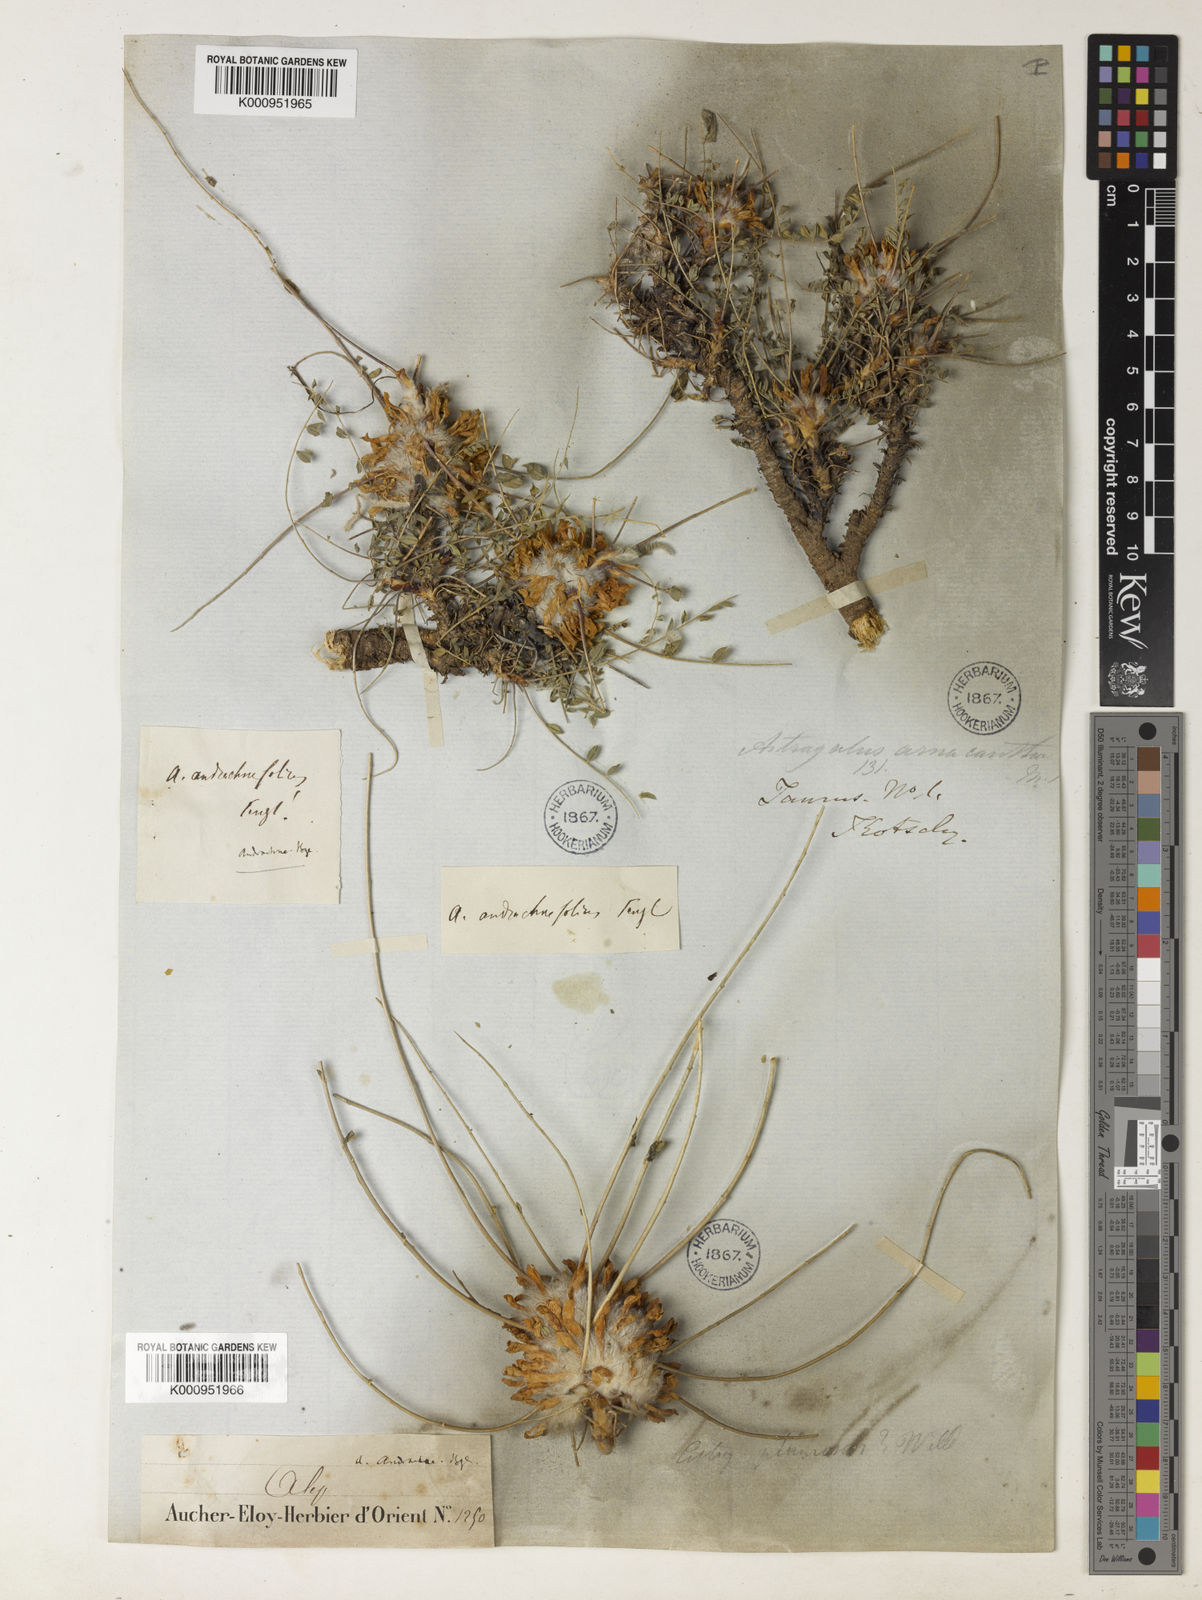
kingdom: Plantae
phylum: Tracheophyta
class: Magnoliopsida
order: Fabales
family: Fabaceae
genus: Astragalus
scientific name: Astragalus cephalotes
